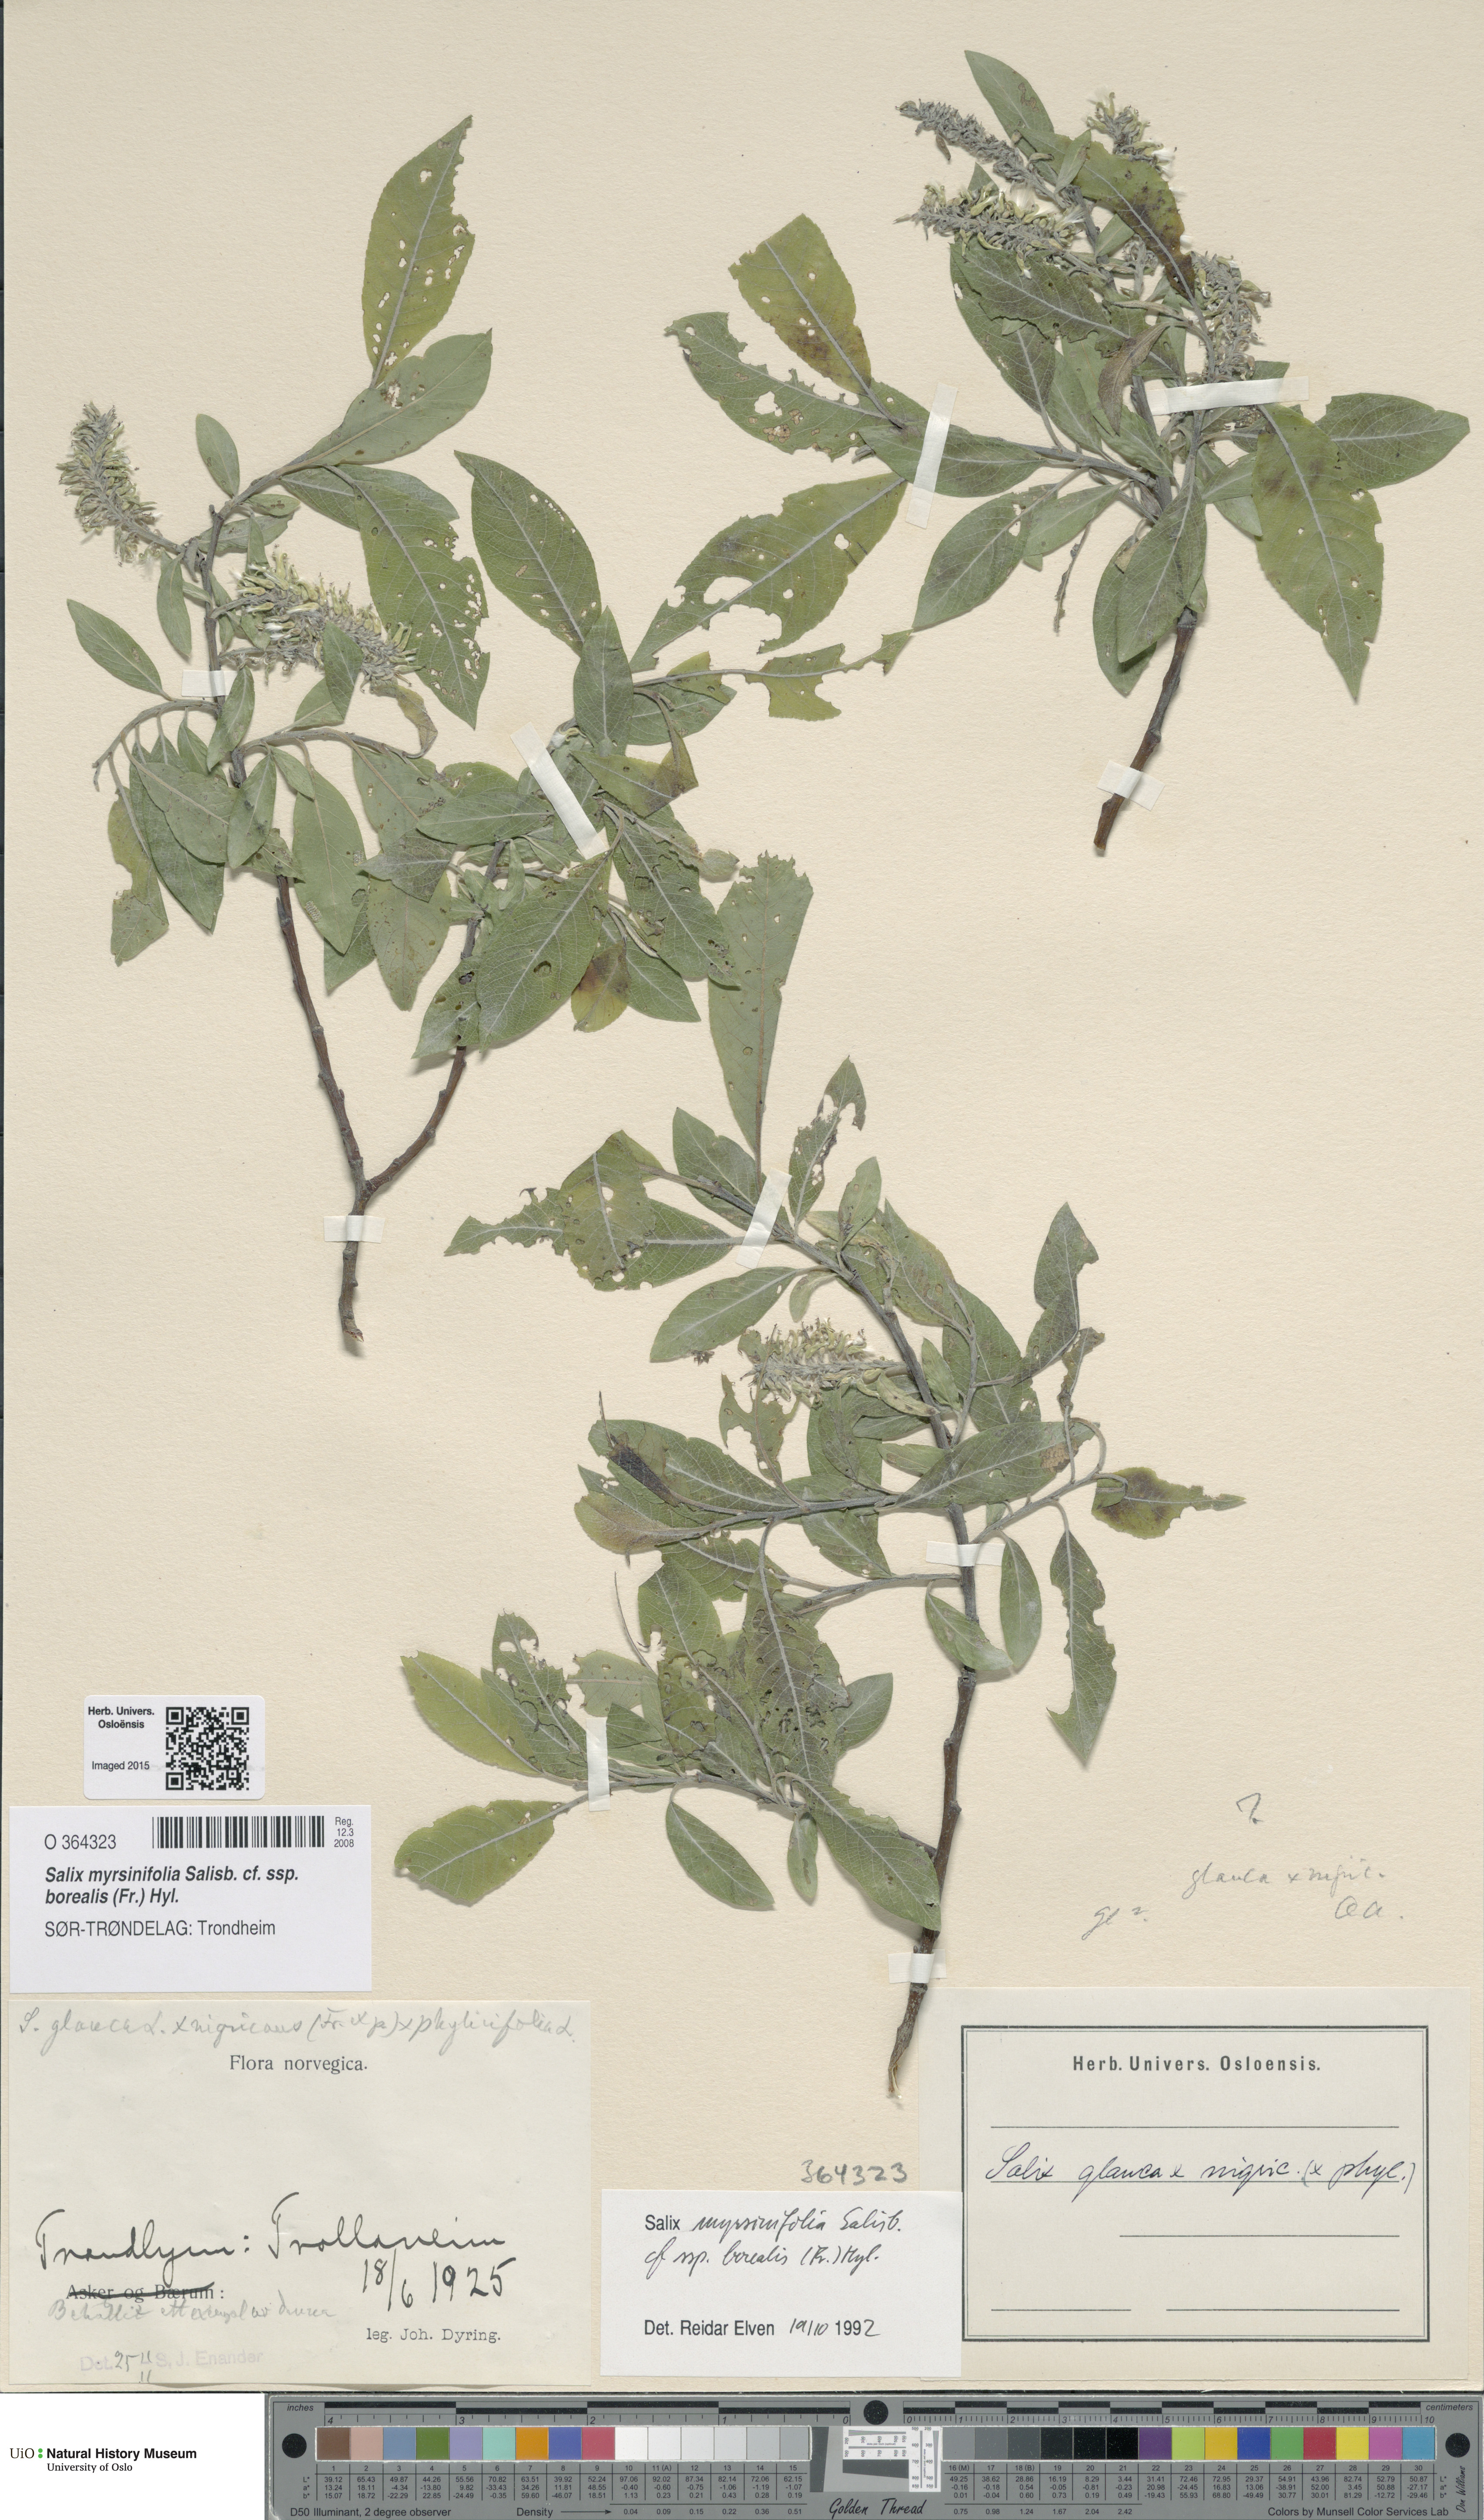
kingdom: Plantae
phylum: Tracheophyta
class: Magnoliopsida
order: Malpighiales
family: Salicaceae
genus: Salix
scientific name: Salix myrsinifolia
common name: Dark-leaved willow
